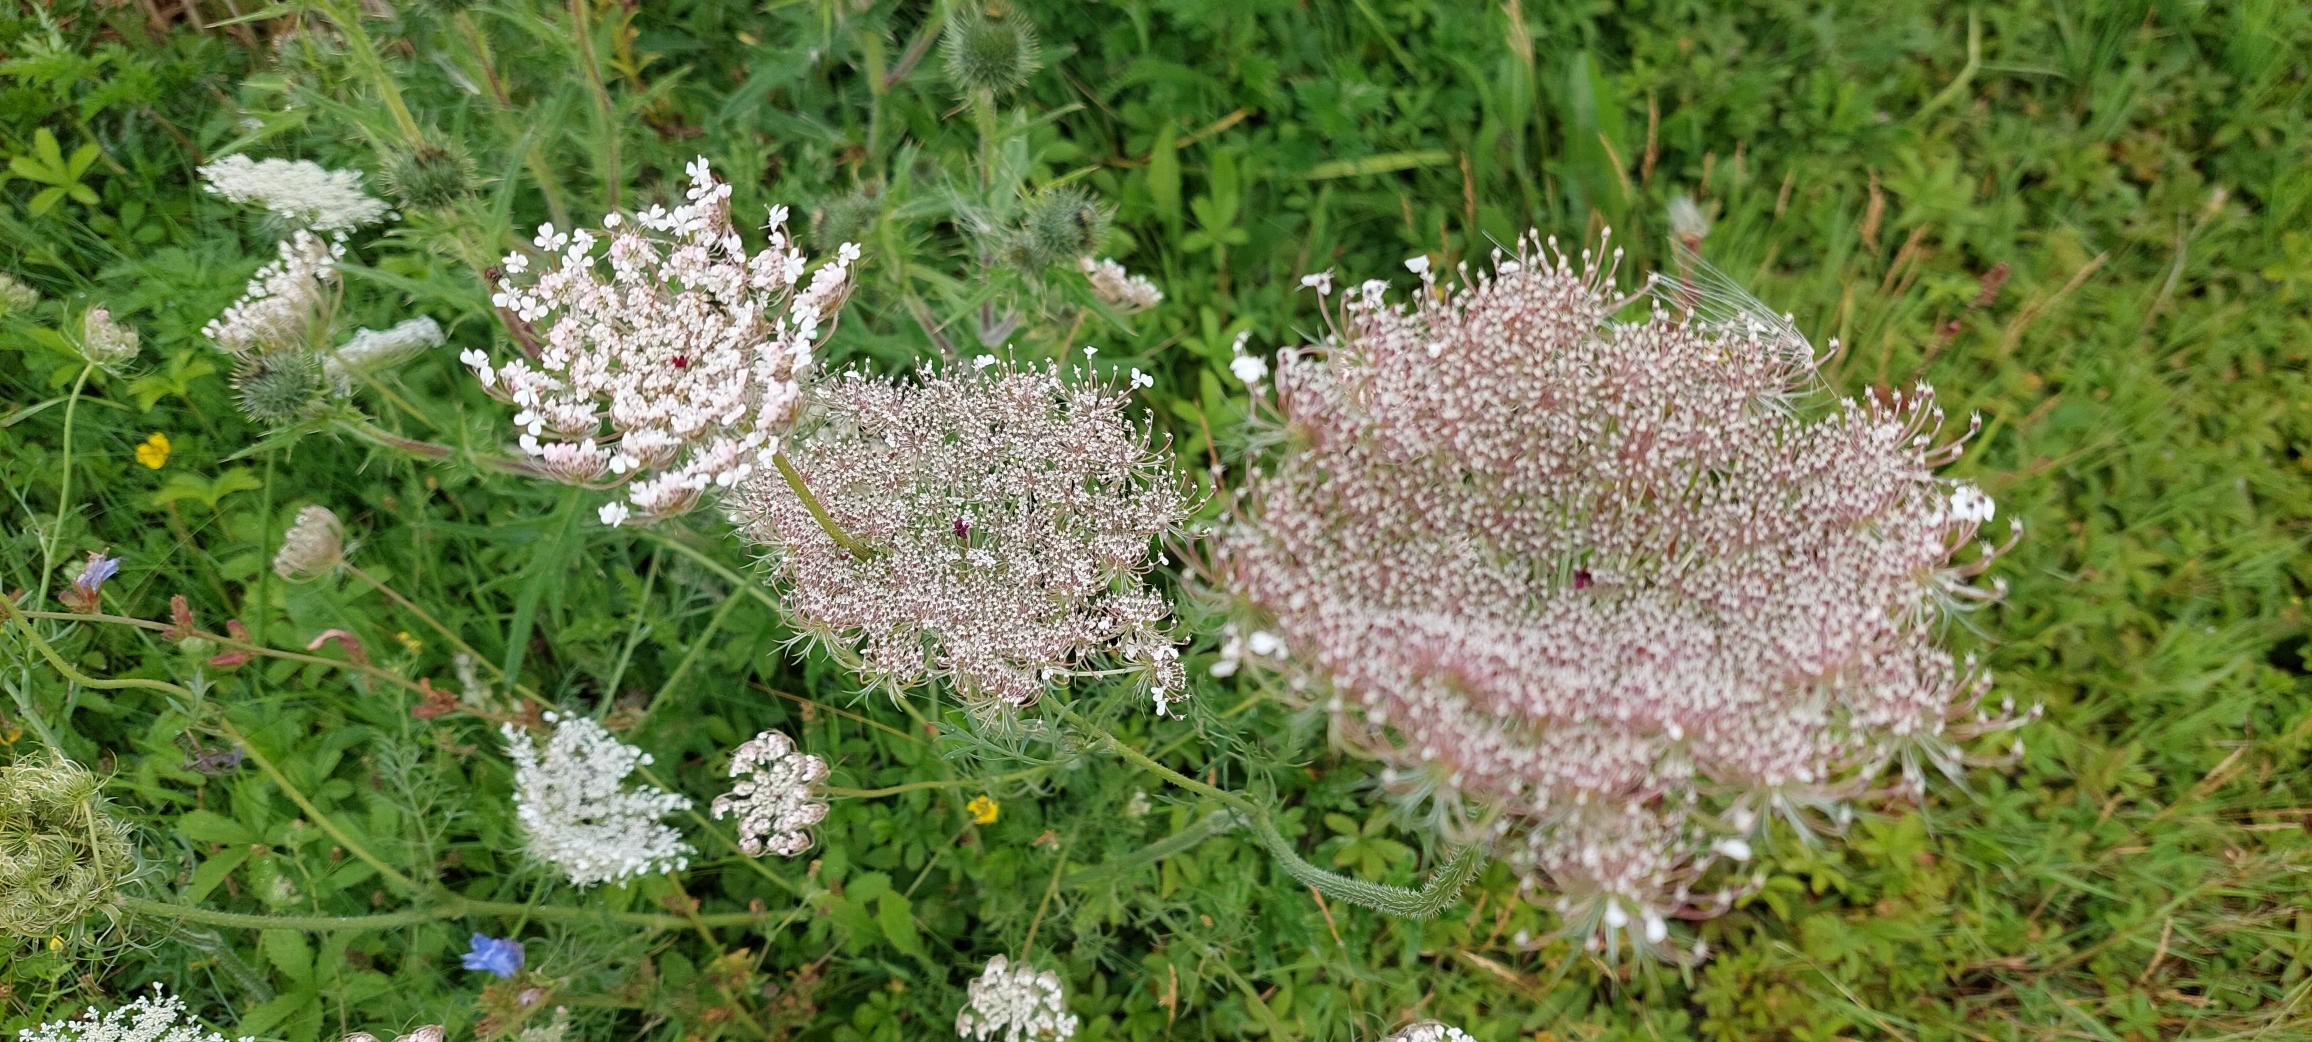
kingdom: Plantae
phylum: Tracheophyta
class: Magnoliopsida
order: Apiales
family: Apiaceae
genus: Daucus
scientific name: Daucus carota
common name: Gulerod
